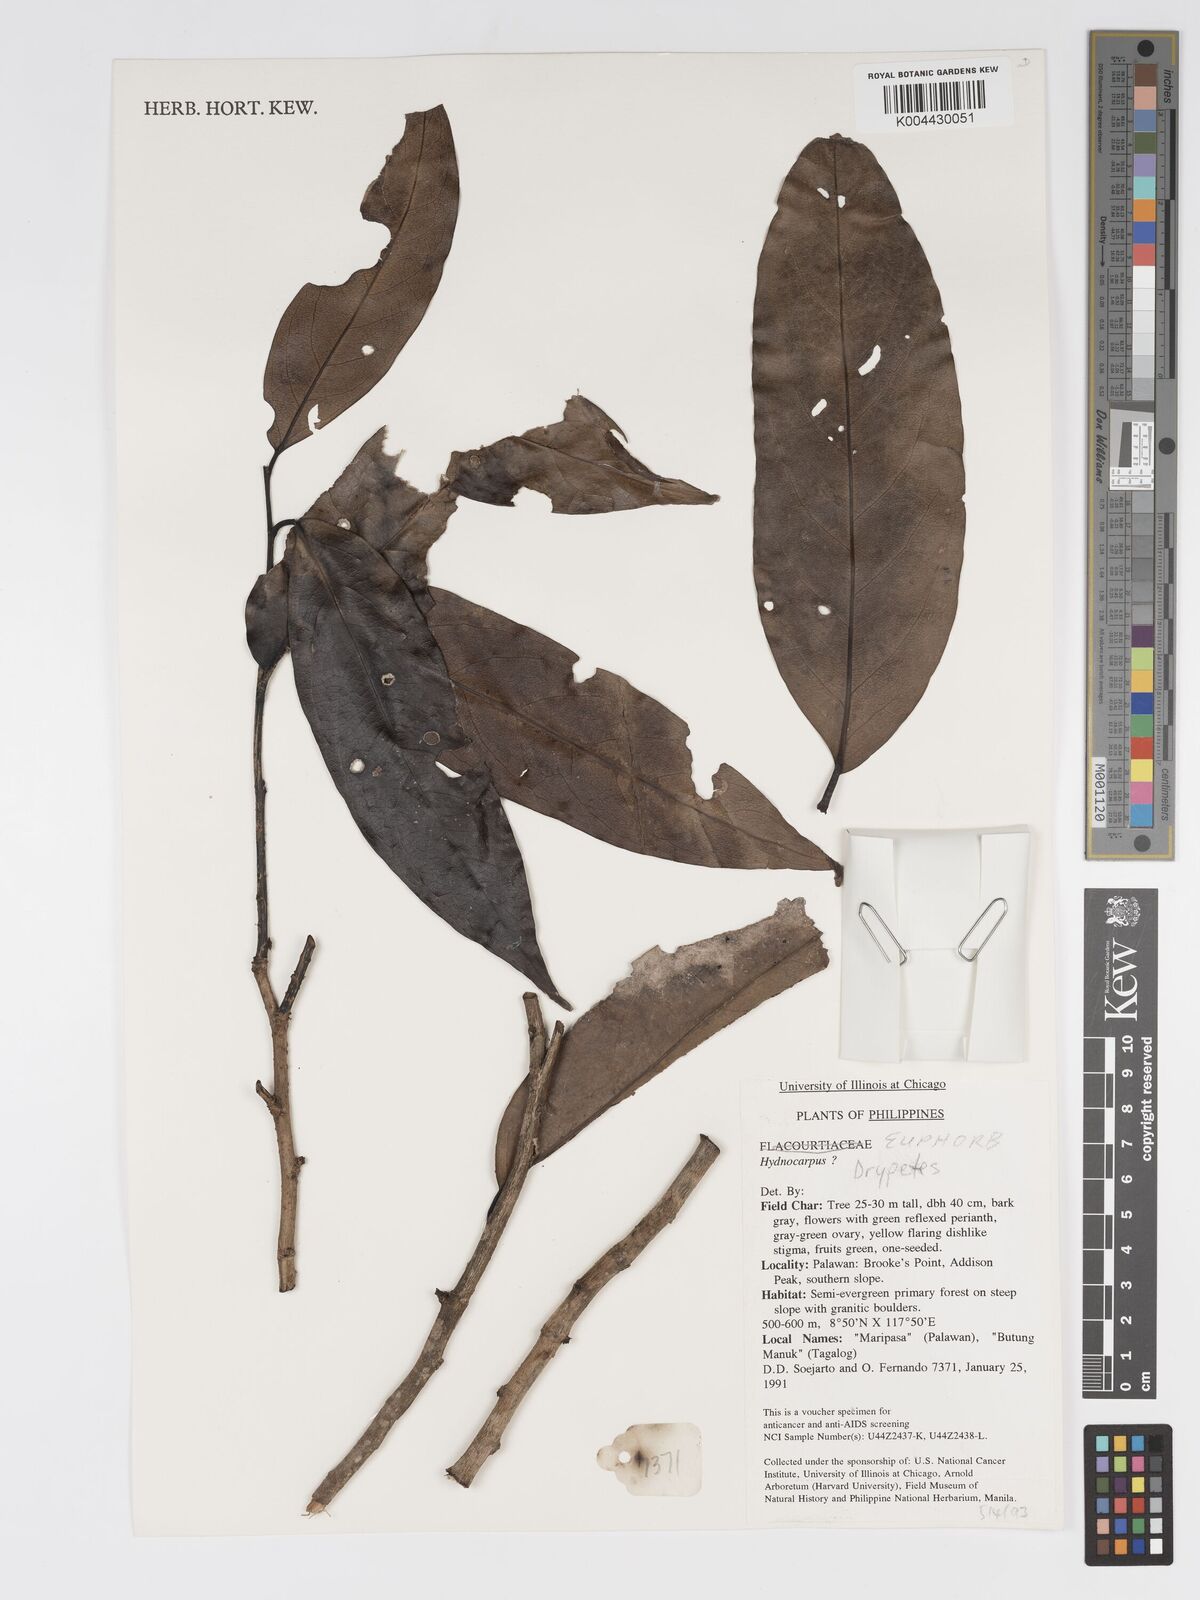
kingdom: Plantae
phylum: Tracheophyta
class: Magnoliopsida
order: Malpighiales
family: Putranjivaceae
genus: Drypetes
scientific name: Drypetes
